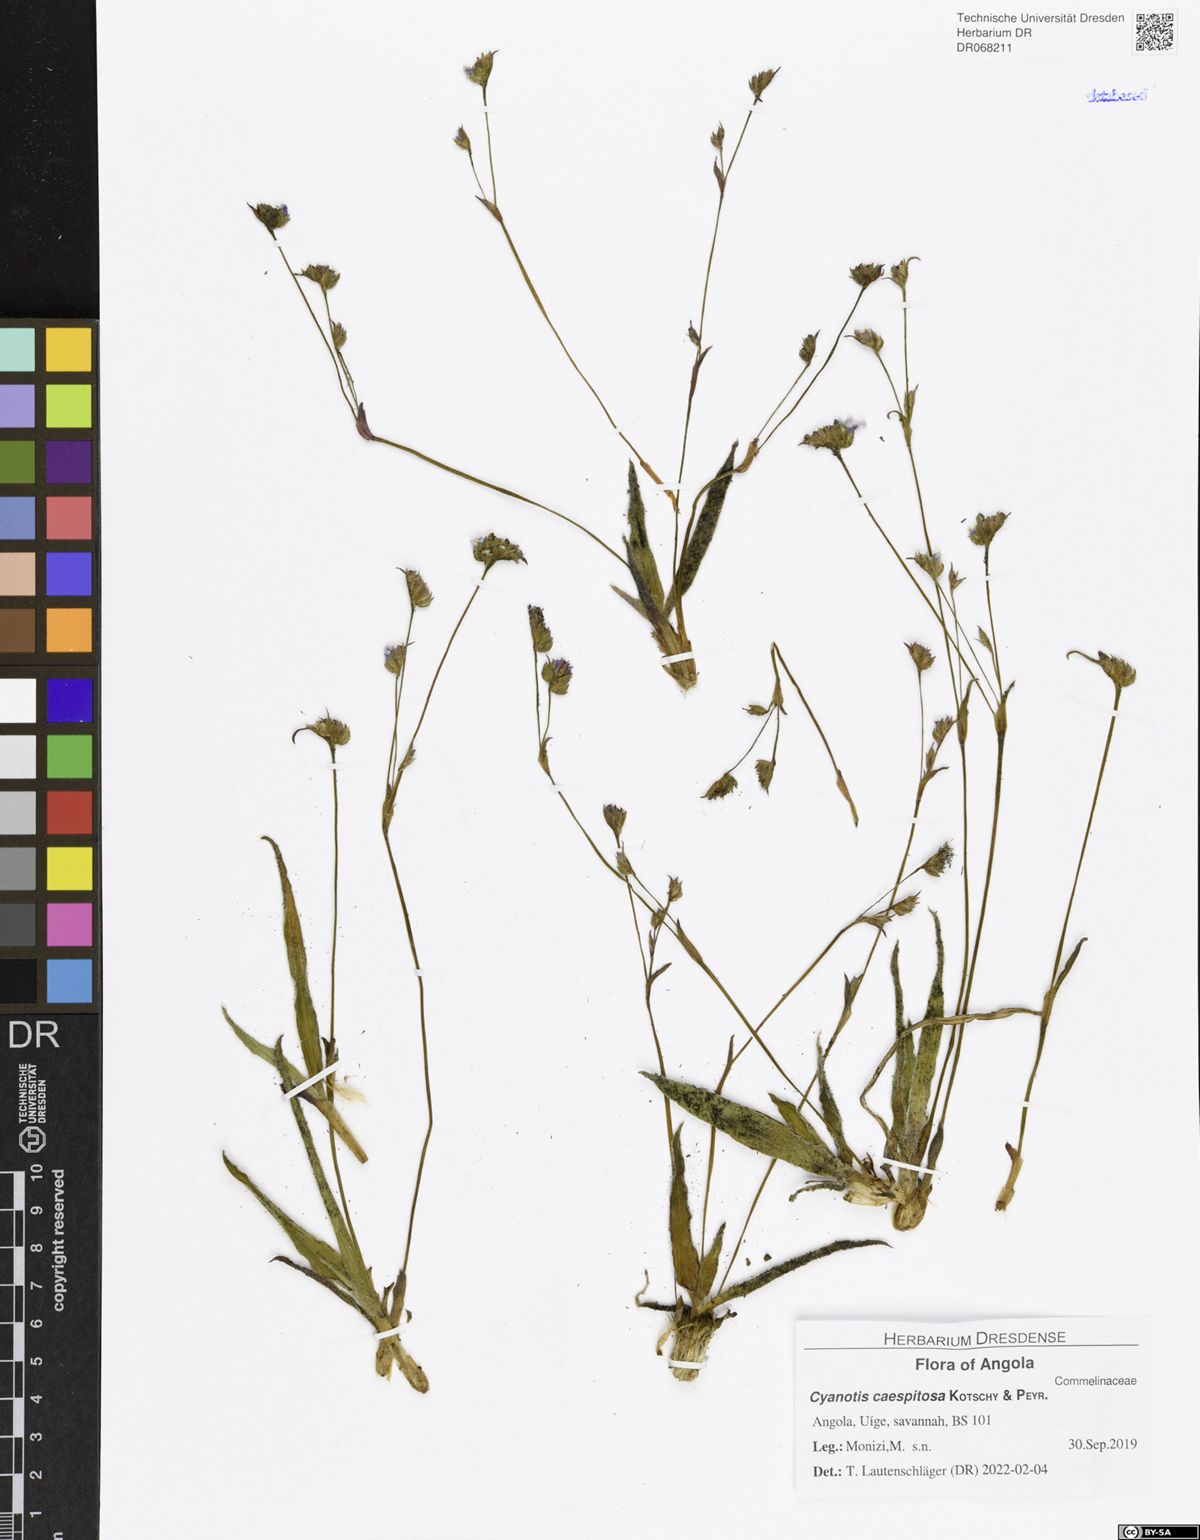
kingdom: Plantae
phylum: Tracheophyta
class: Liliopsida
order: Commelinales
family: Commelinaceae
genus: Cyanotis
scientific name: Cyanotis caespitosa
